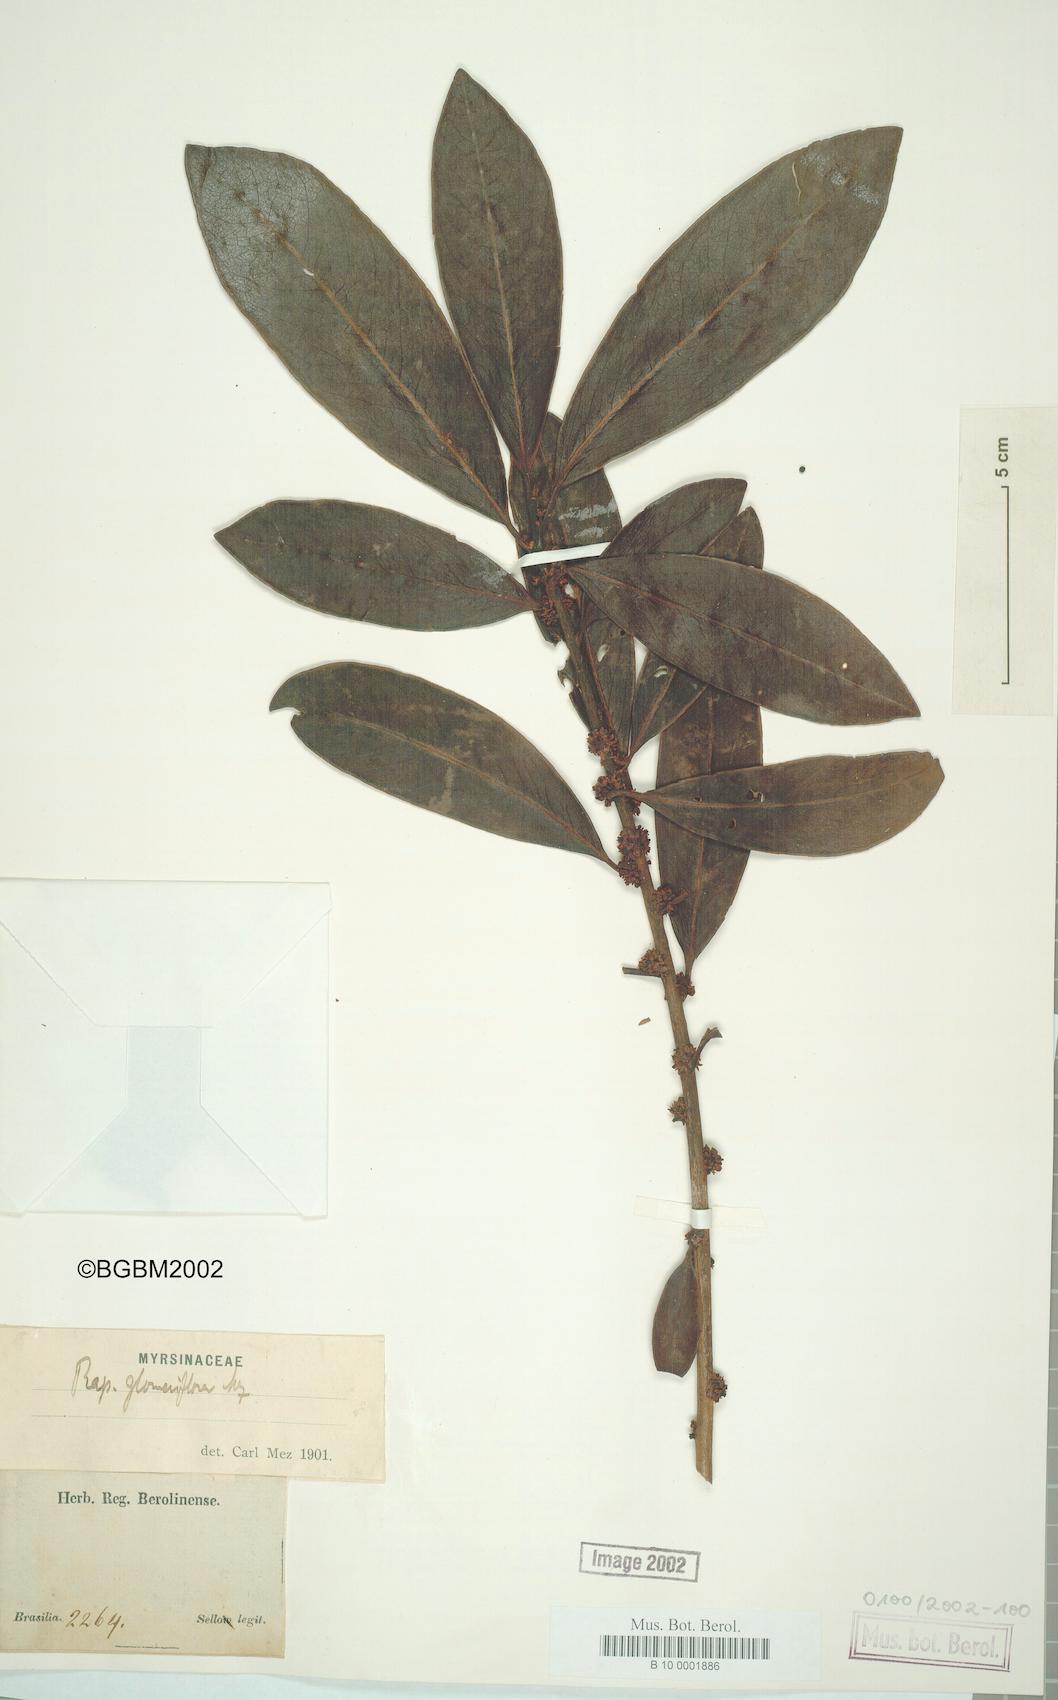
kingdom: Plantae
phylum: Tracheophyta
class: Magnoliopsida
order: Ericales
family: Primulaceae
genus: Myrsine
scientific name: Myrsine umbellata
